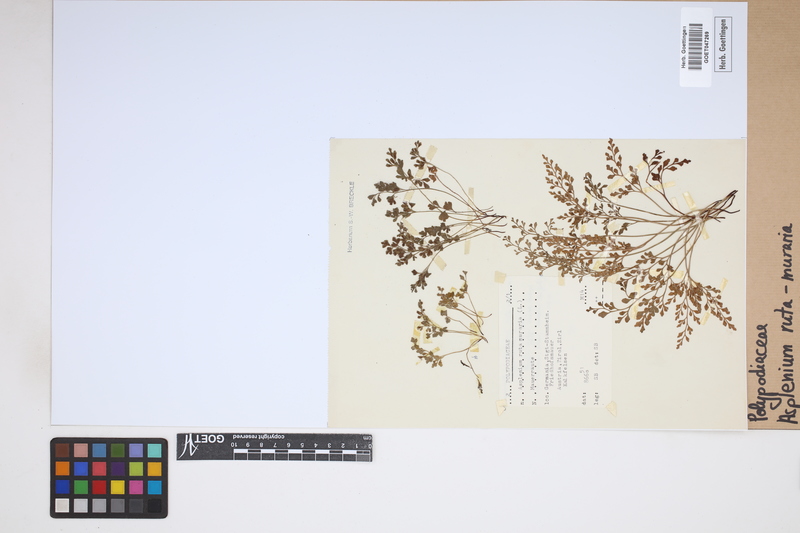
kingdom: Plantae
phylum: Tracheophyta
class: Polypodiopsida
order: Polypodiales
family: Aspleniaceae
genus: Asplenium
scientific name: Asplenium ruta-muraria
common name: Wall-rue
